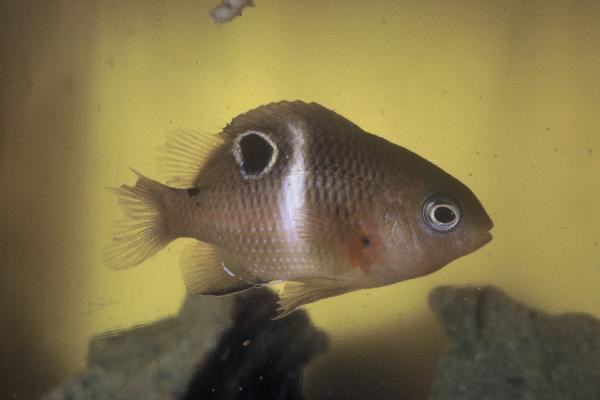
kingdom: Animalia
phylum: Chordata
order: Perciformes
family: Pomacentridae
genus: Plectroglyphidodon
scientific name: Plectroglyphidodon leucozonus
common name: White-band damsel
